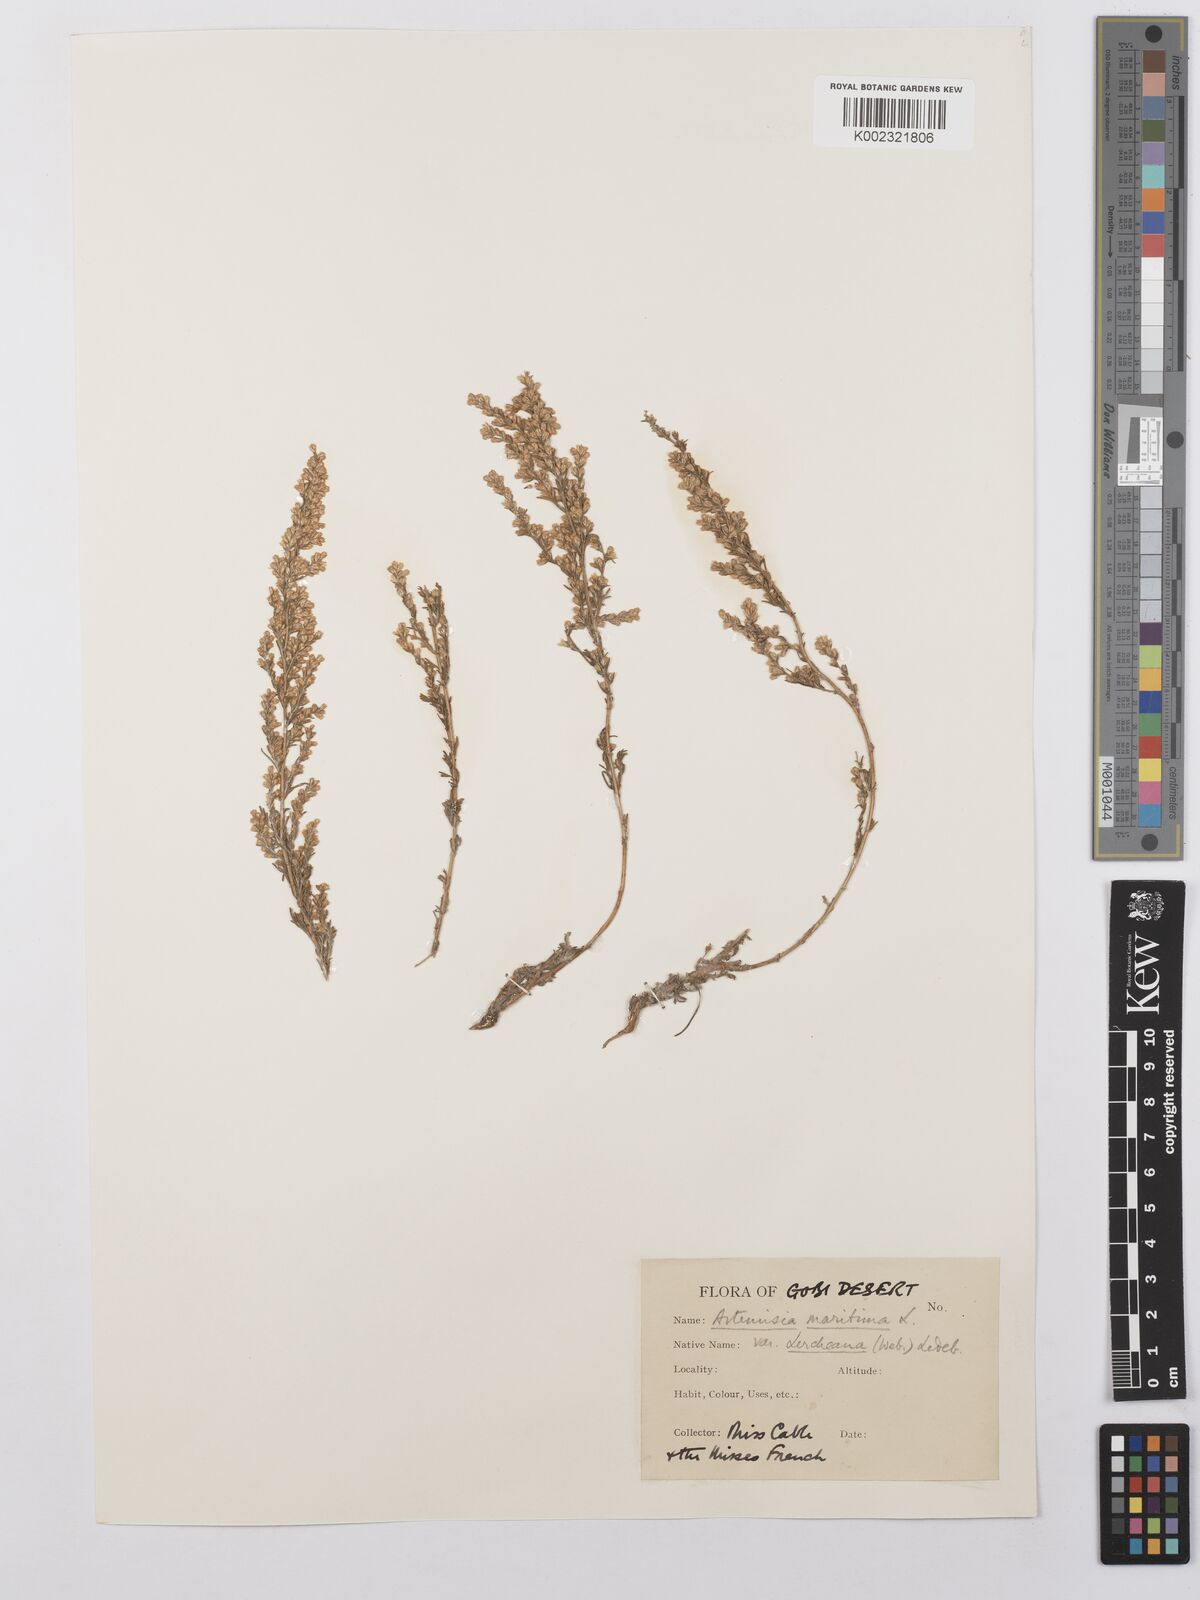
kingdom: Plantae
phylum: Tracheophyta
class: Magnoliopsida
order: Asterales
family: Asteraceae
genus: Artemisia
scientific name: Artemisia lercheana
